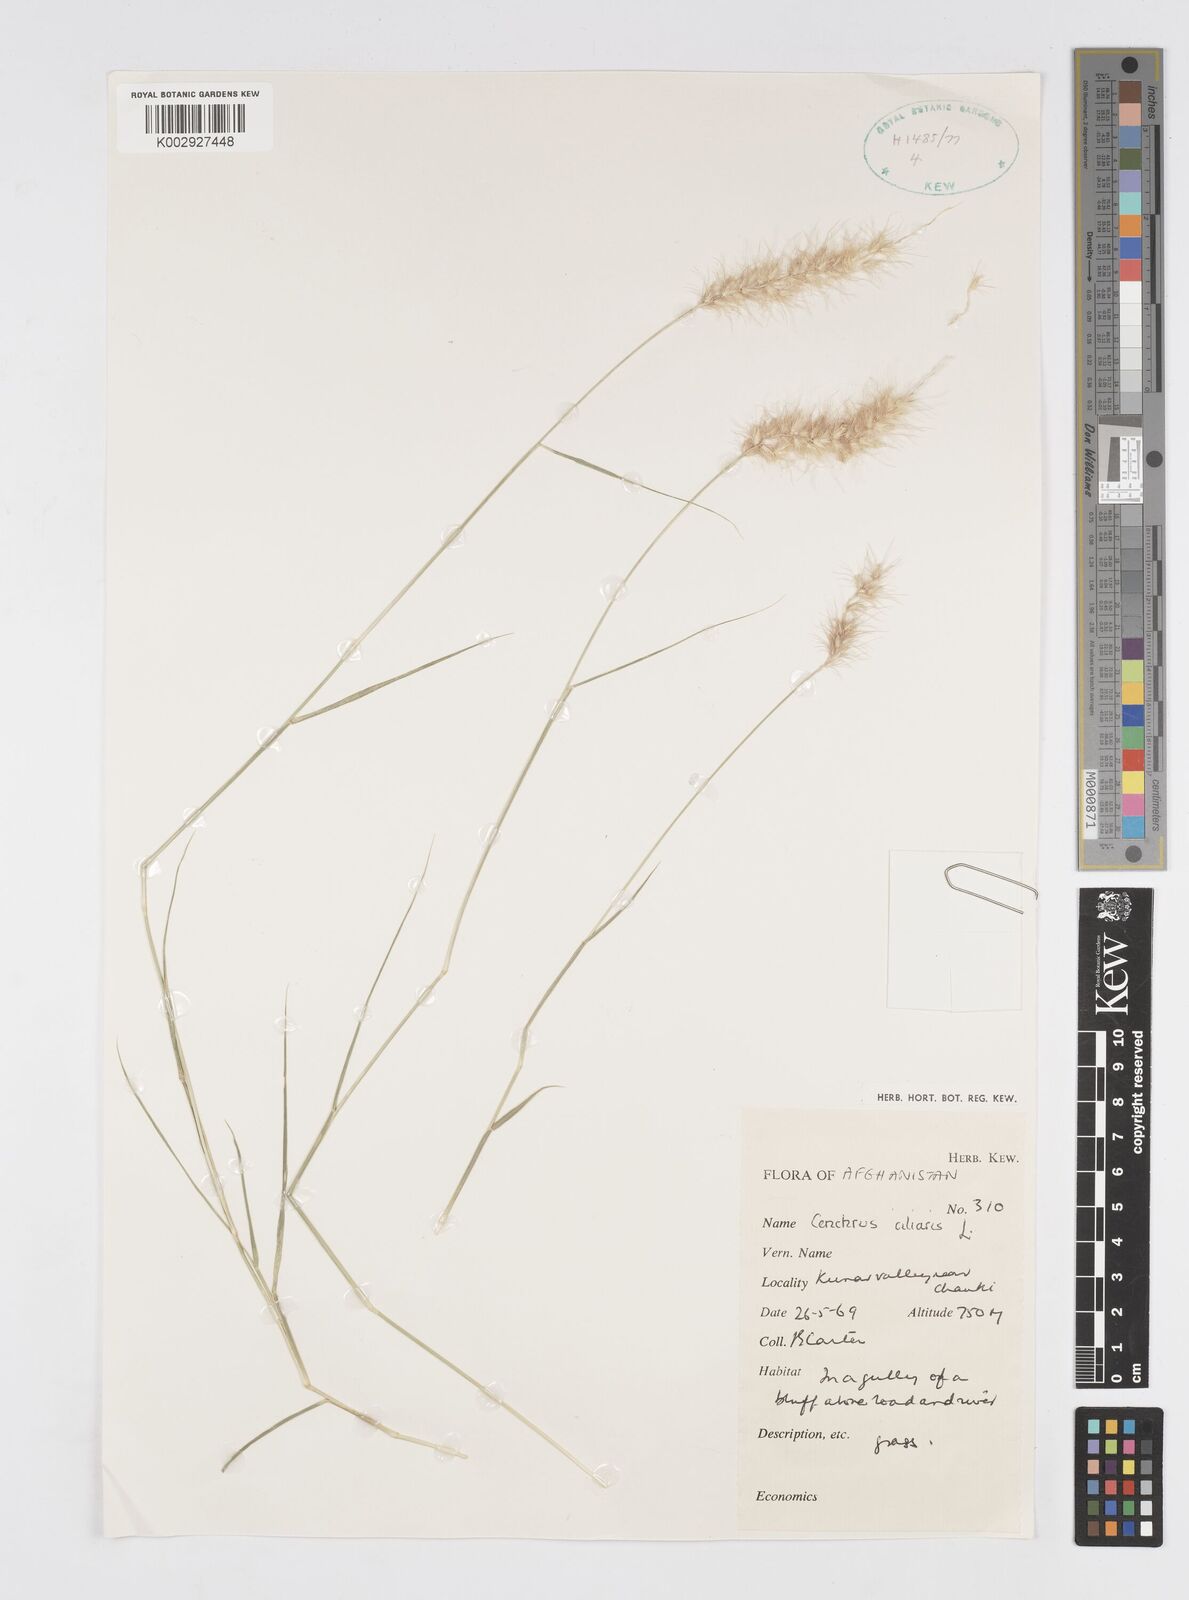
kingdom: Plantae
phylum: Tracheophyta
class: Liliopsida
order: Poales
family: Poaceae
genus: Cenchrus
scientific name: Cenchrus ciliaris
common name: Buffelgrass
